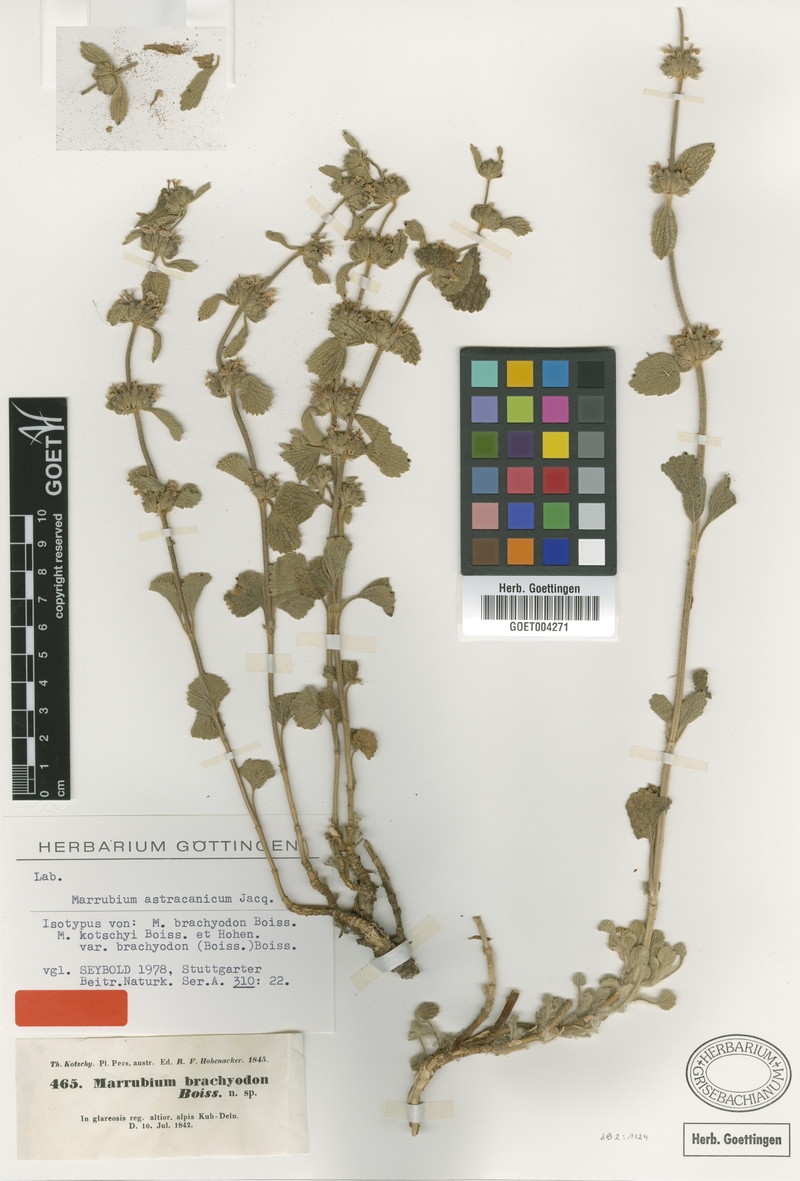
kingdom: Plantae
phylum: Tracheophyta
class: Magnoliopsida
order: Lamiales
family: Lamiaceae
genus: Marrubium
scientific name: Marrubium astracanicum
